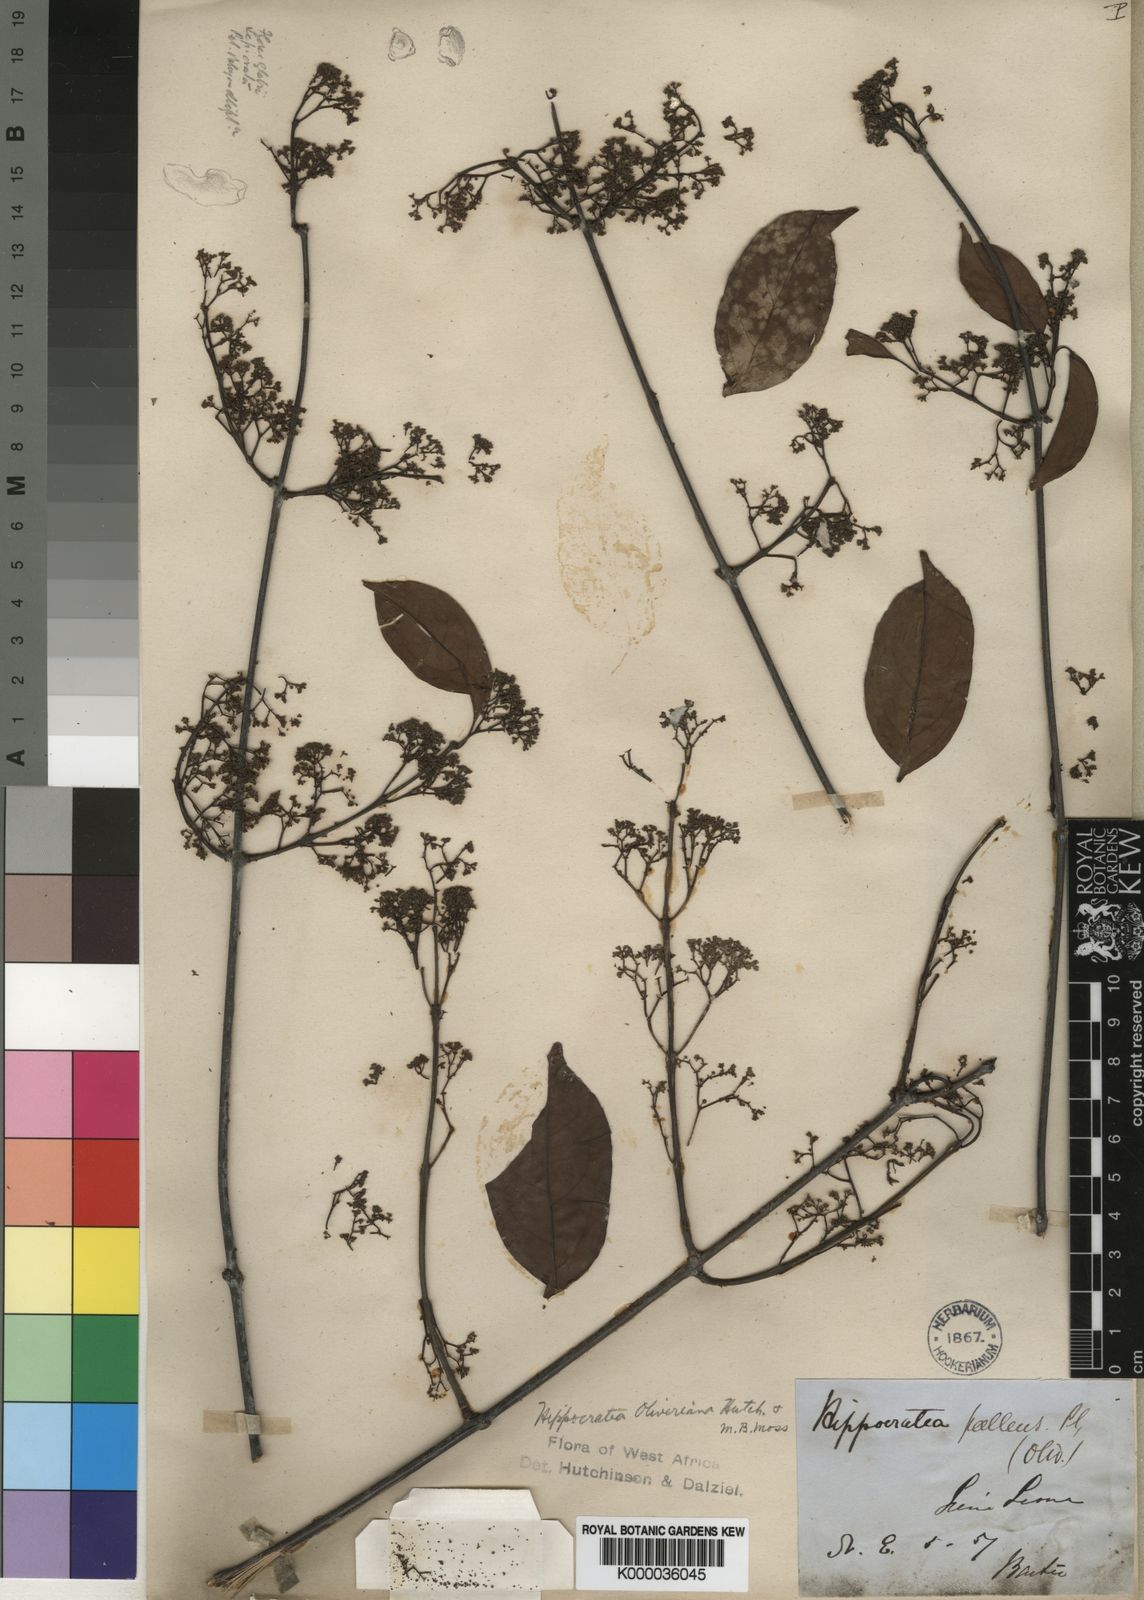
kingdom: Plantae
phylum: Tracheophyta
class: Magnoliopsida
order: Celastrales
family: Celastraceae
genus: Apodostigma
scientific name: Apodostigma pallens
